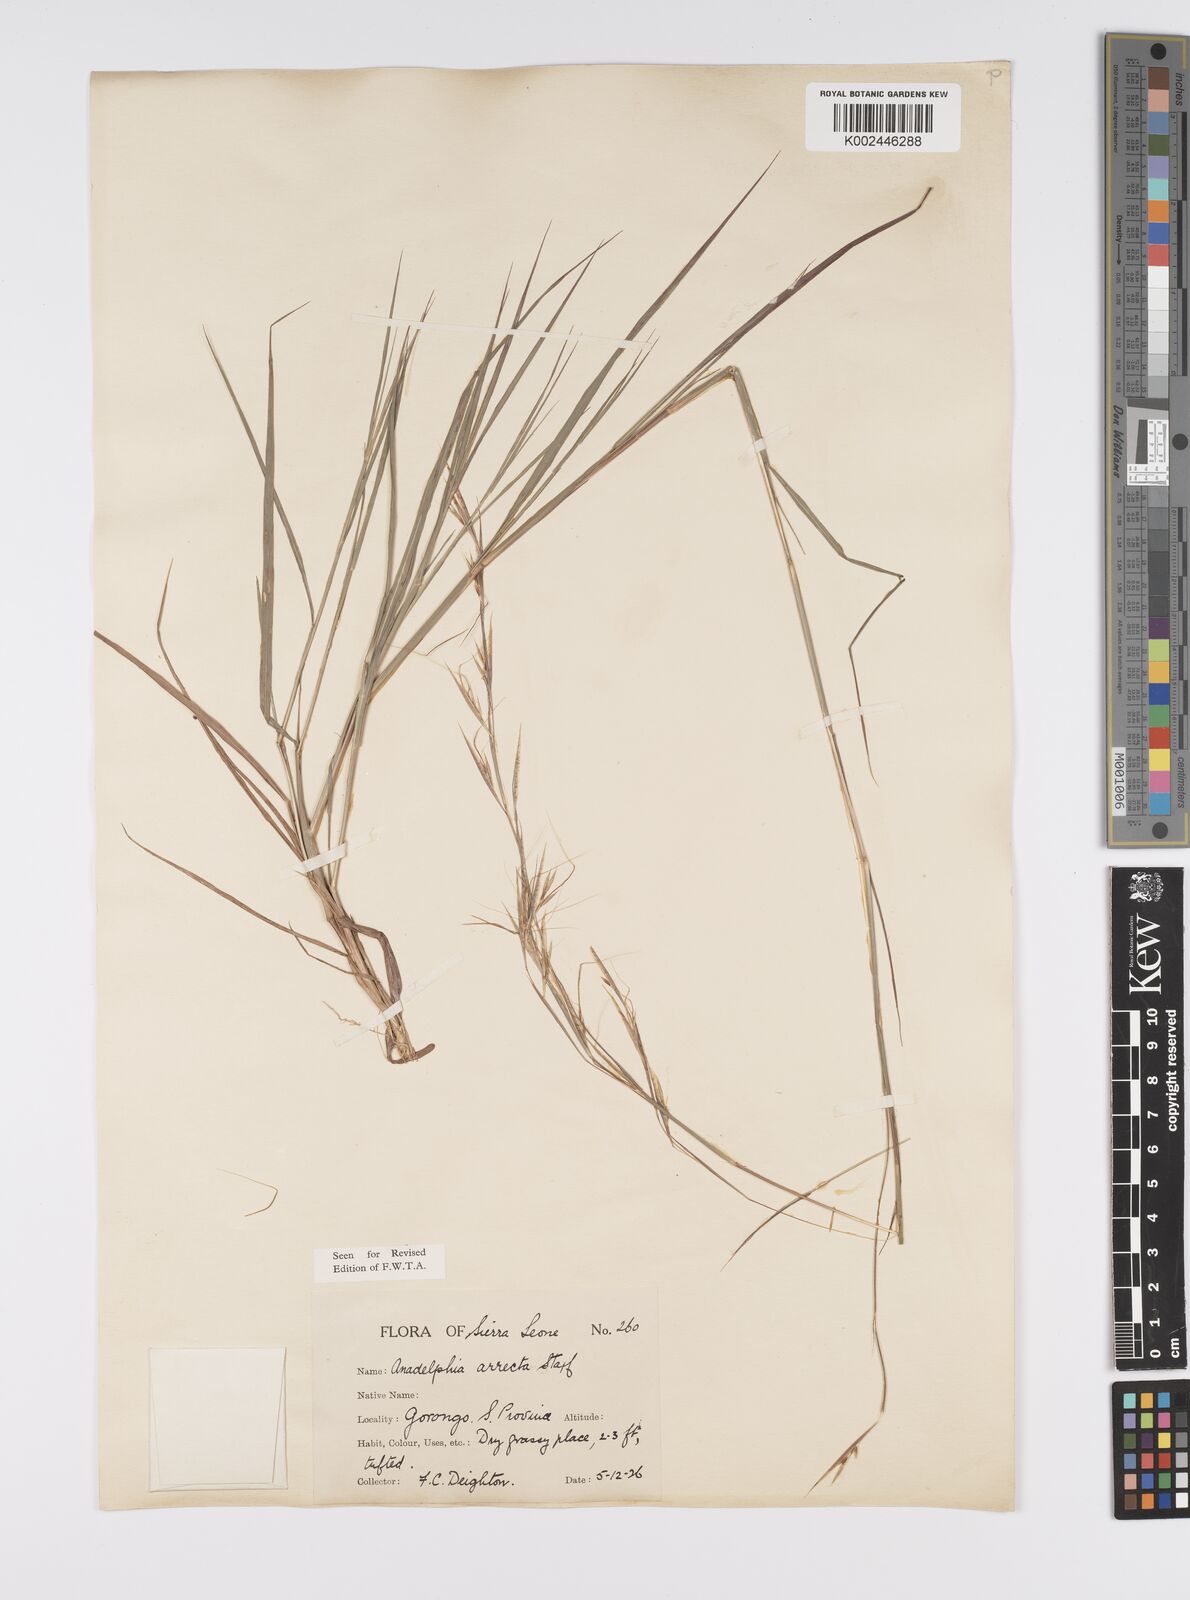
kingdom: Plantae
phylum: Tracheophyta
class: Liliopsida
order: Poales
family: Poaceae
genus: Anadelphia
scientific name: Anadelphia afzeliana
